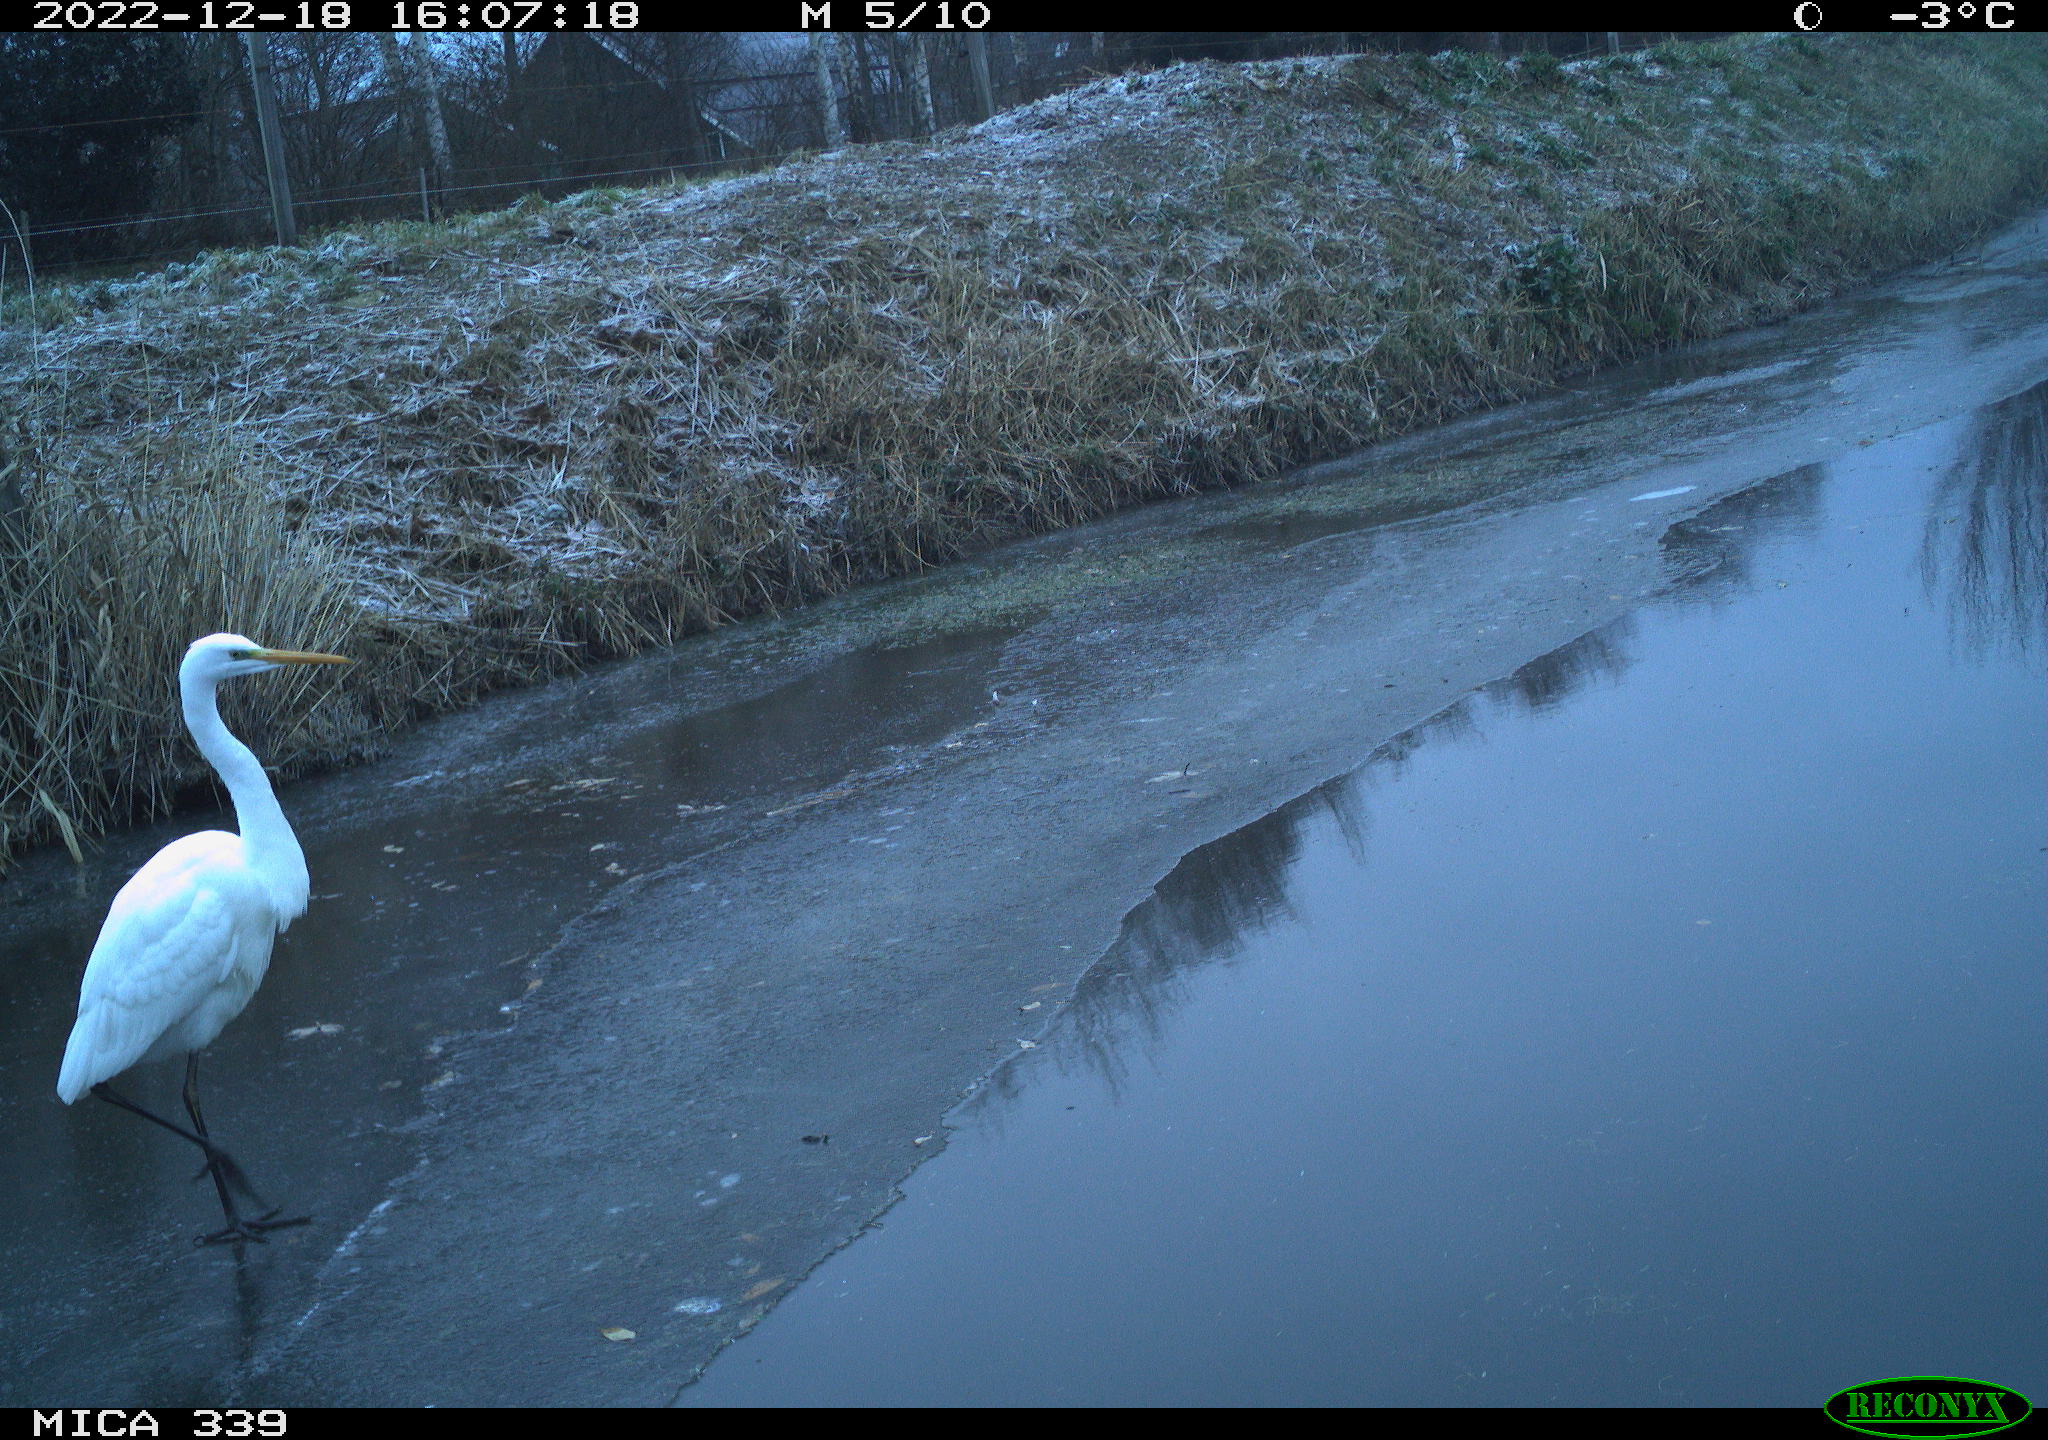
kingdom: Animalia
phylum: Chordata
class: Aves
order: Pelecaniformes
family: Ardeidae
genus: Ardea
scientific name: Ardea alba
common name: Great egret
